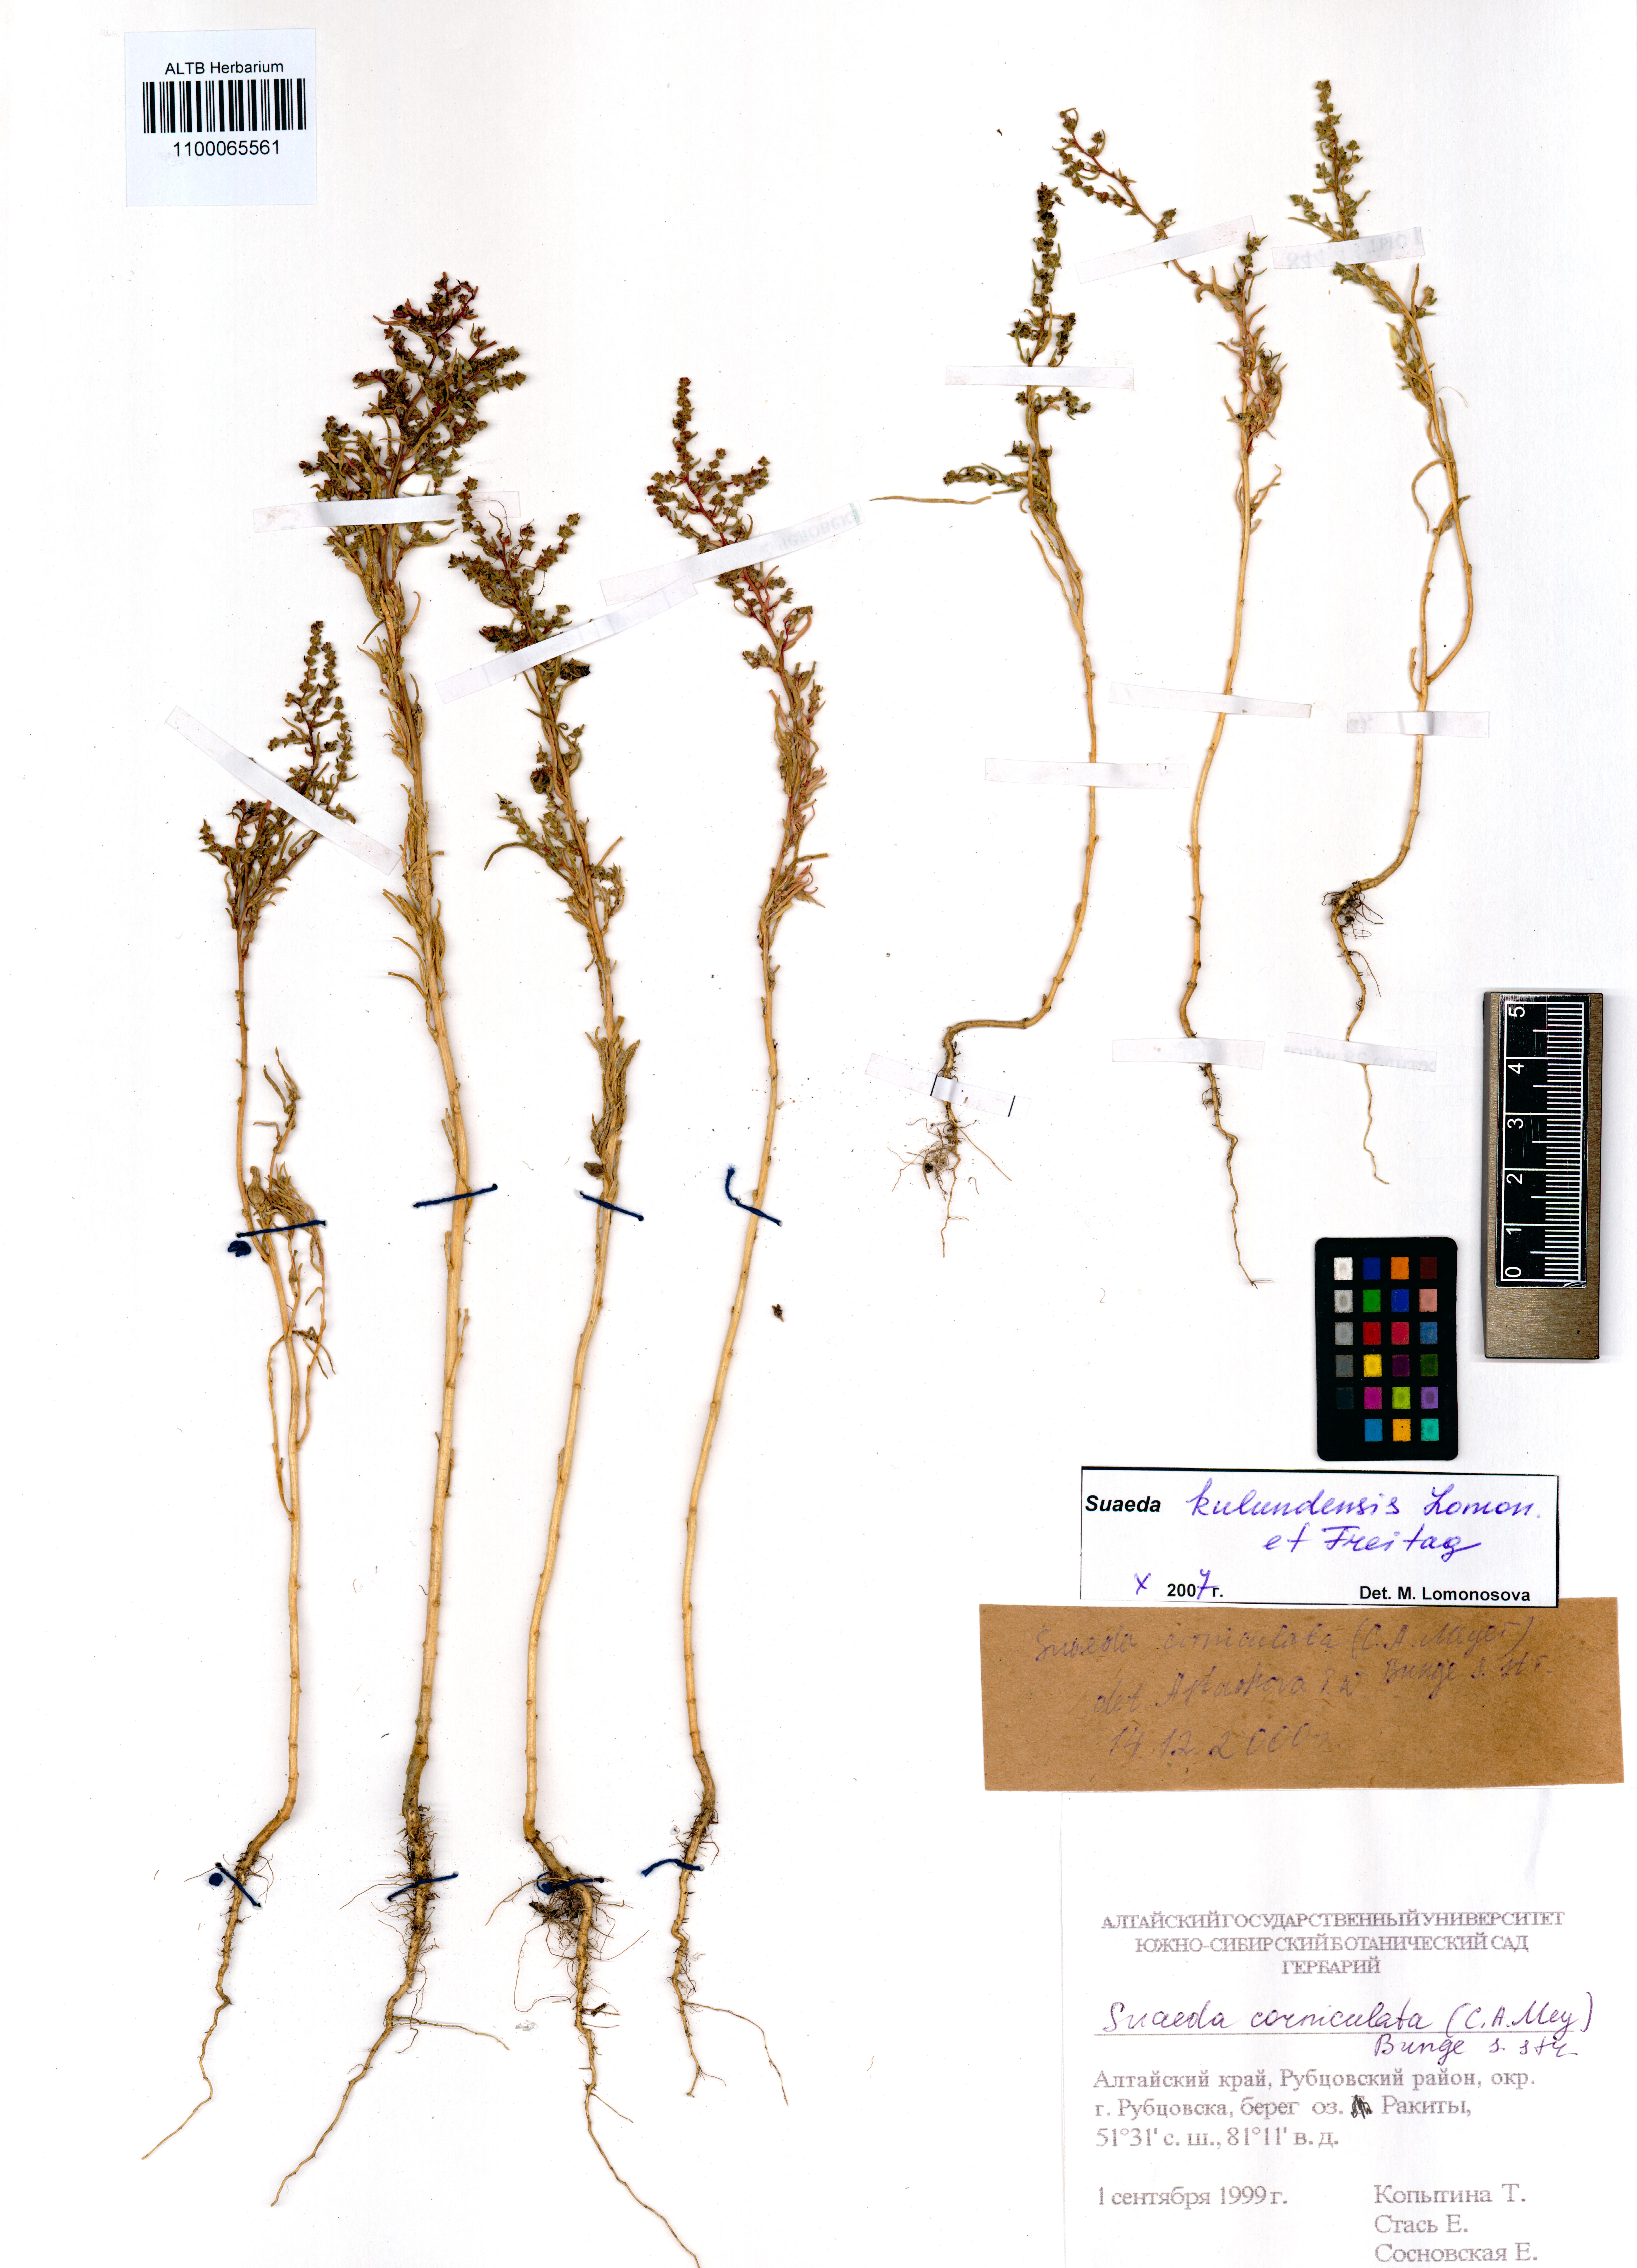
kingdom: Plantae
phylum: Tracheophyta
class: Magnoliopsida
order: Caryophyllales
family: Amaranthaceae
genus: Suaeda
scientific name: Suaeda kulundensis
